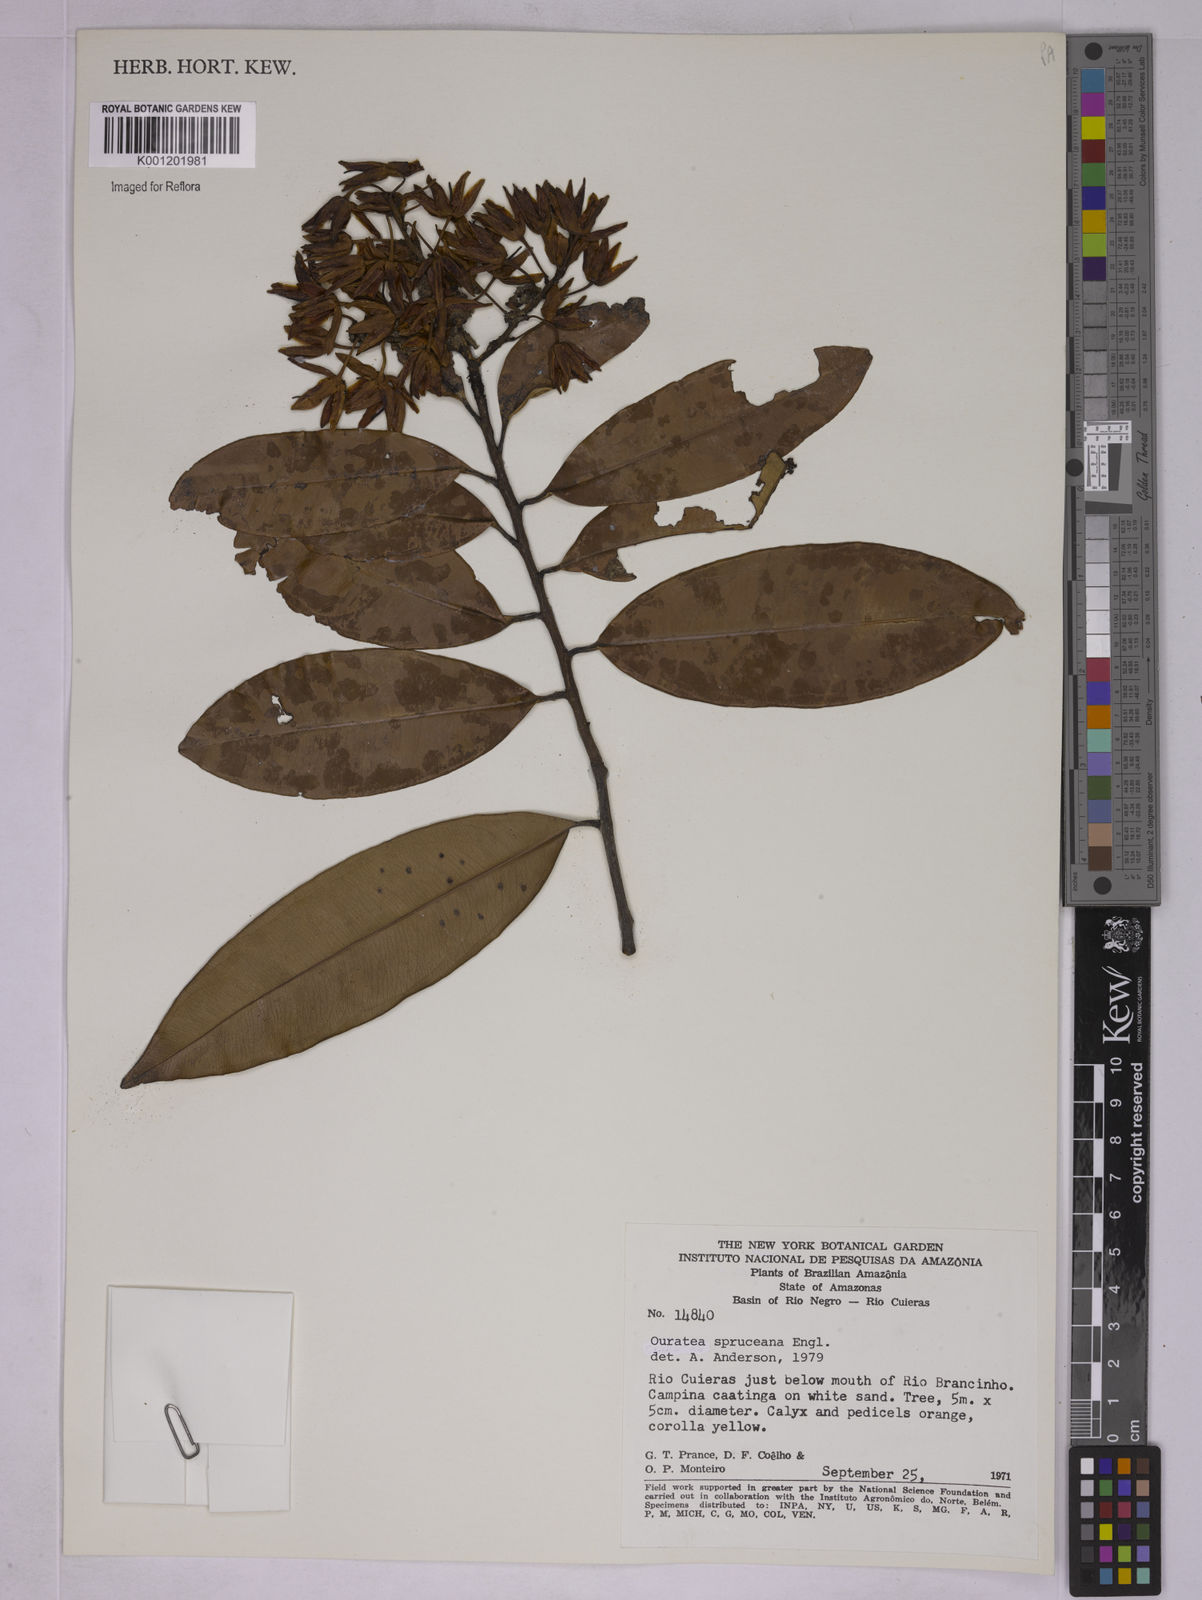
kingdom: Plantae
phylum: Tracheophyta
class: Magnoliopsida
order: Malpighiales
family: Ochnaceae
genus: Ouratea
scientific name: Ouratea spruceana
